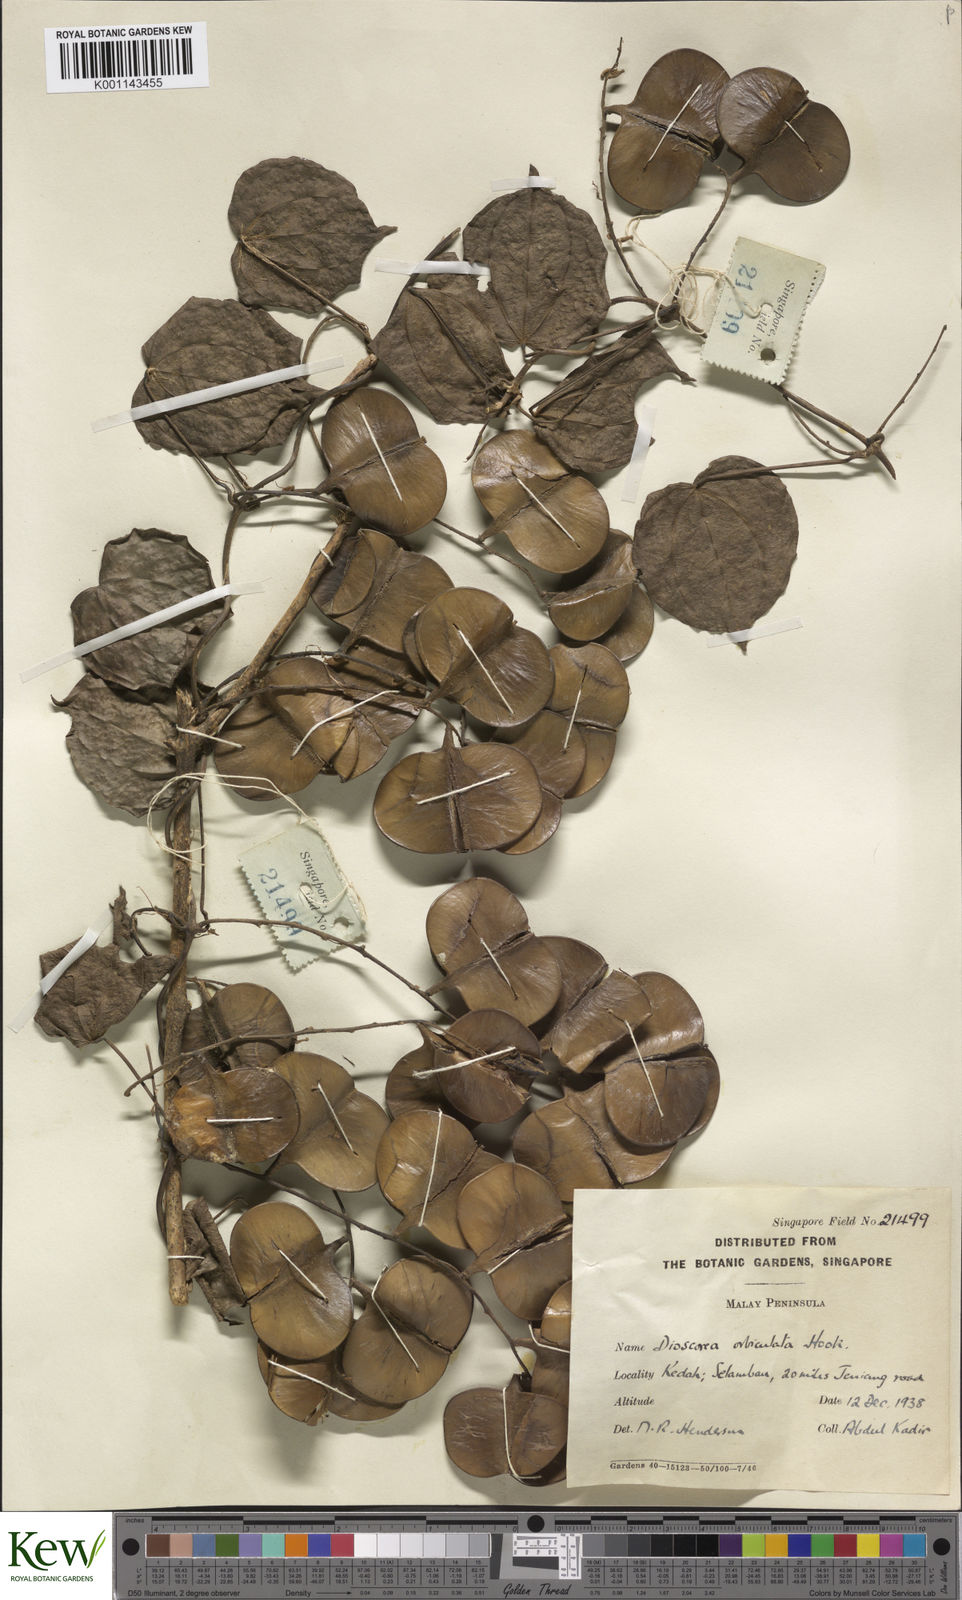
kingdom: Plantae
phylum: Tracheophyta
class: Liliopsida
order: Dioscoreales
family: Dioscoreaceae
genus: Dioscorea
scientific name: Dioscorea orbiculata
